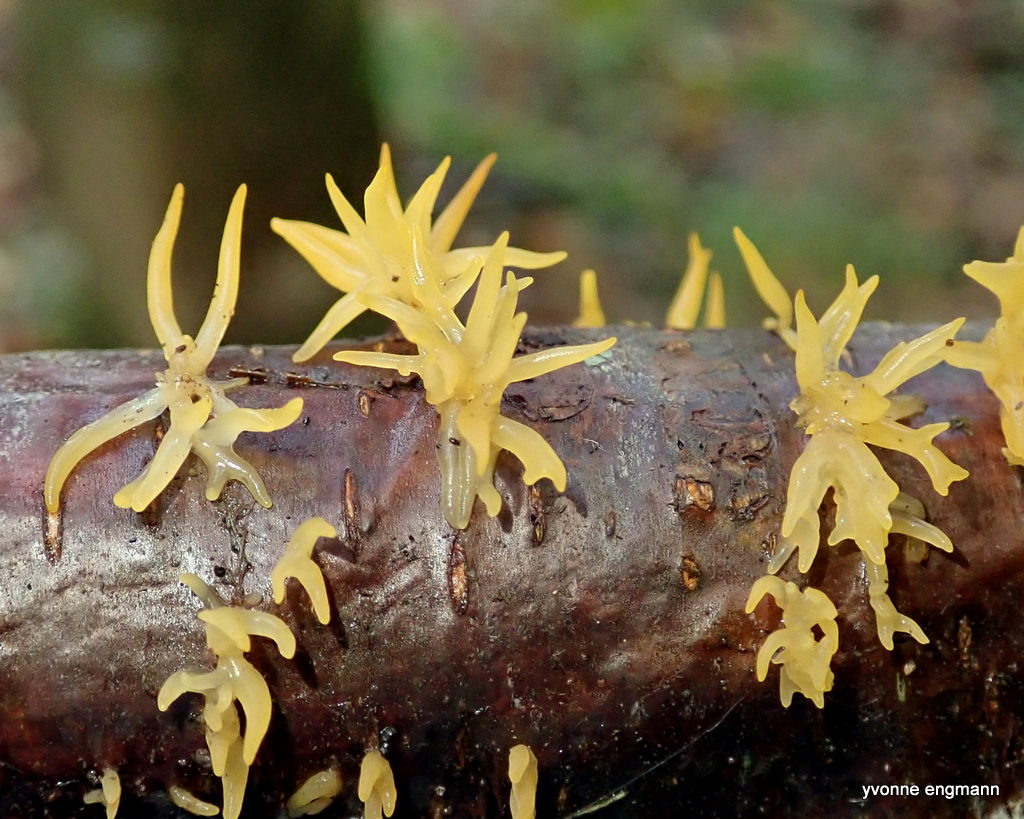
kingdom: Fungi
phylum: Basidiomycota
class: Dacrymycetes
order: Dacrymycetales
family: Dacrymycetaceae
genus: Calocera
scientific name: Calocera cornea
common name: liden guldgaffel
